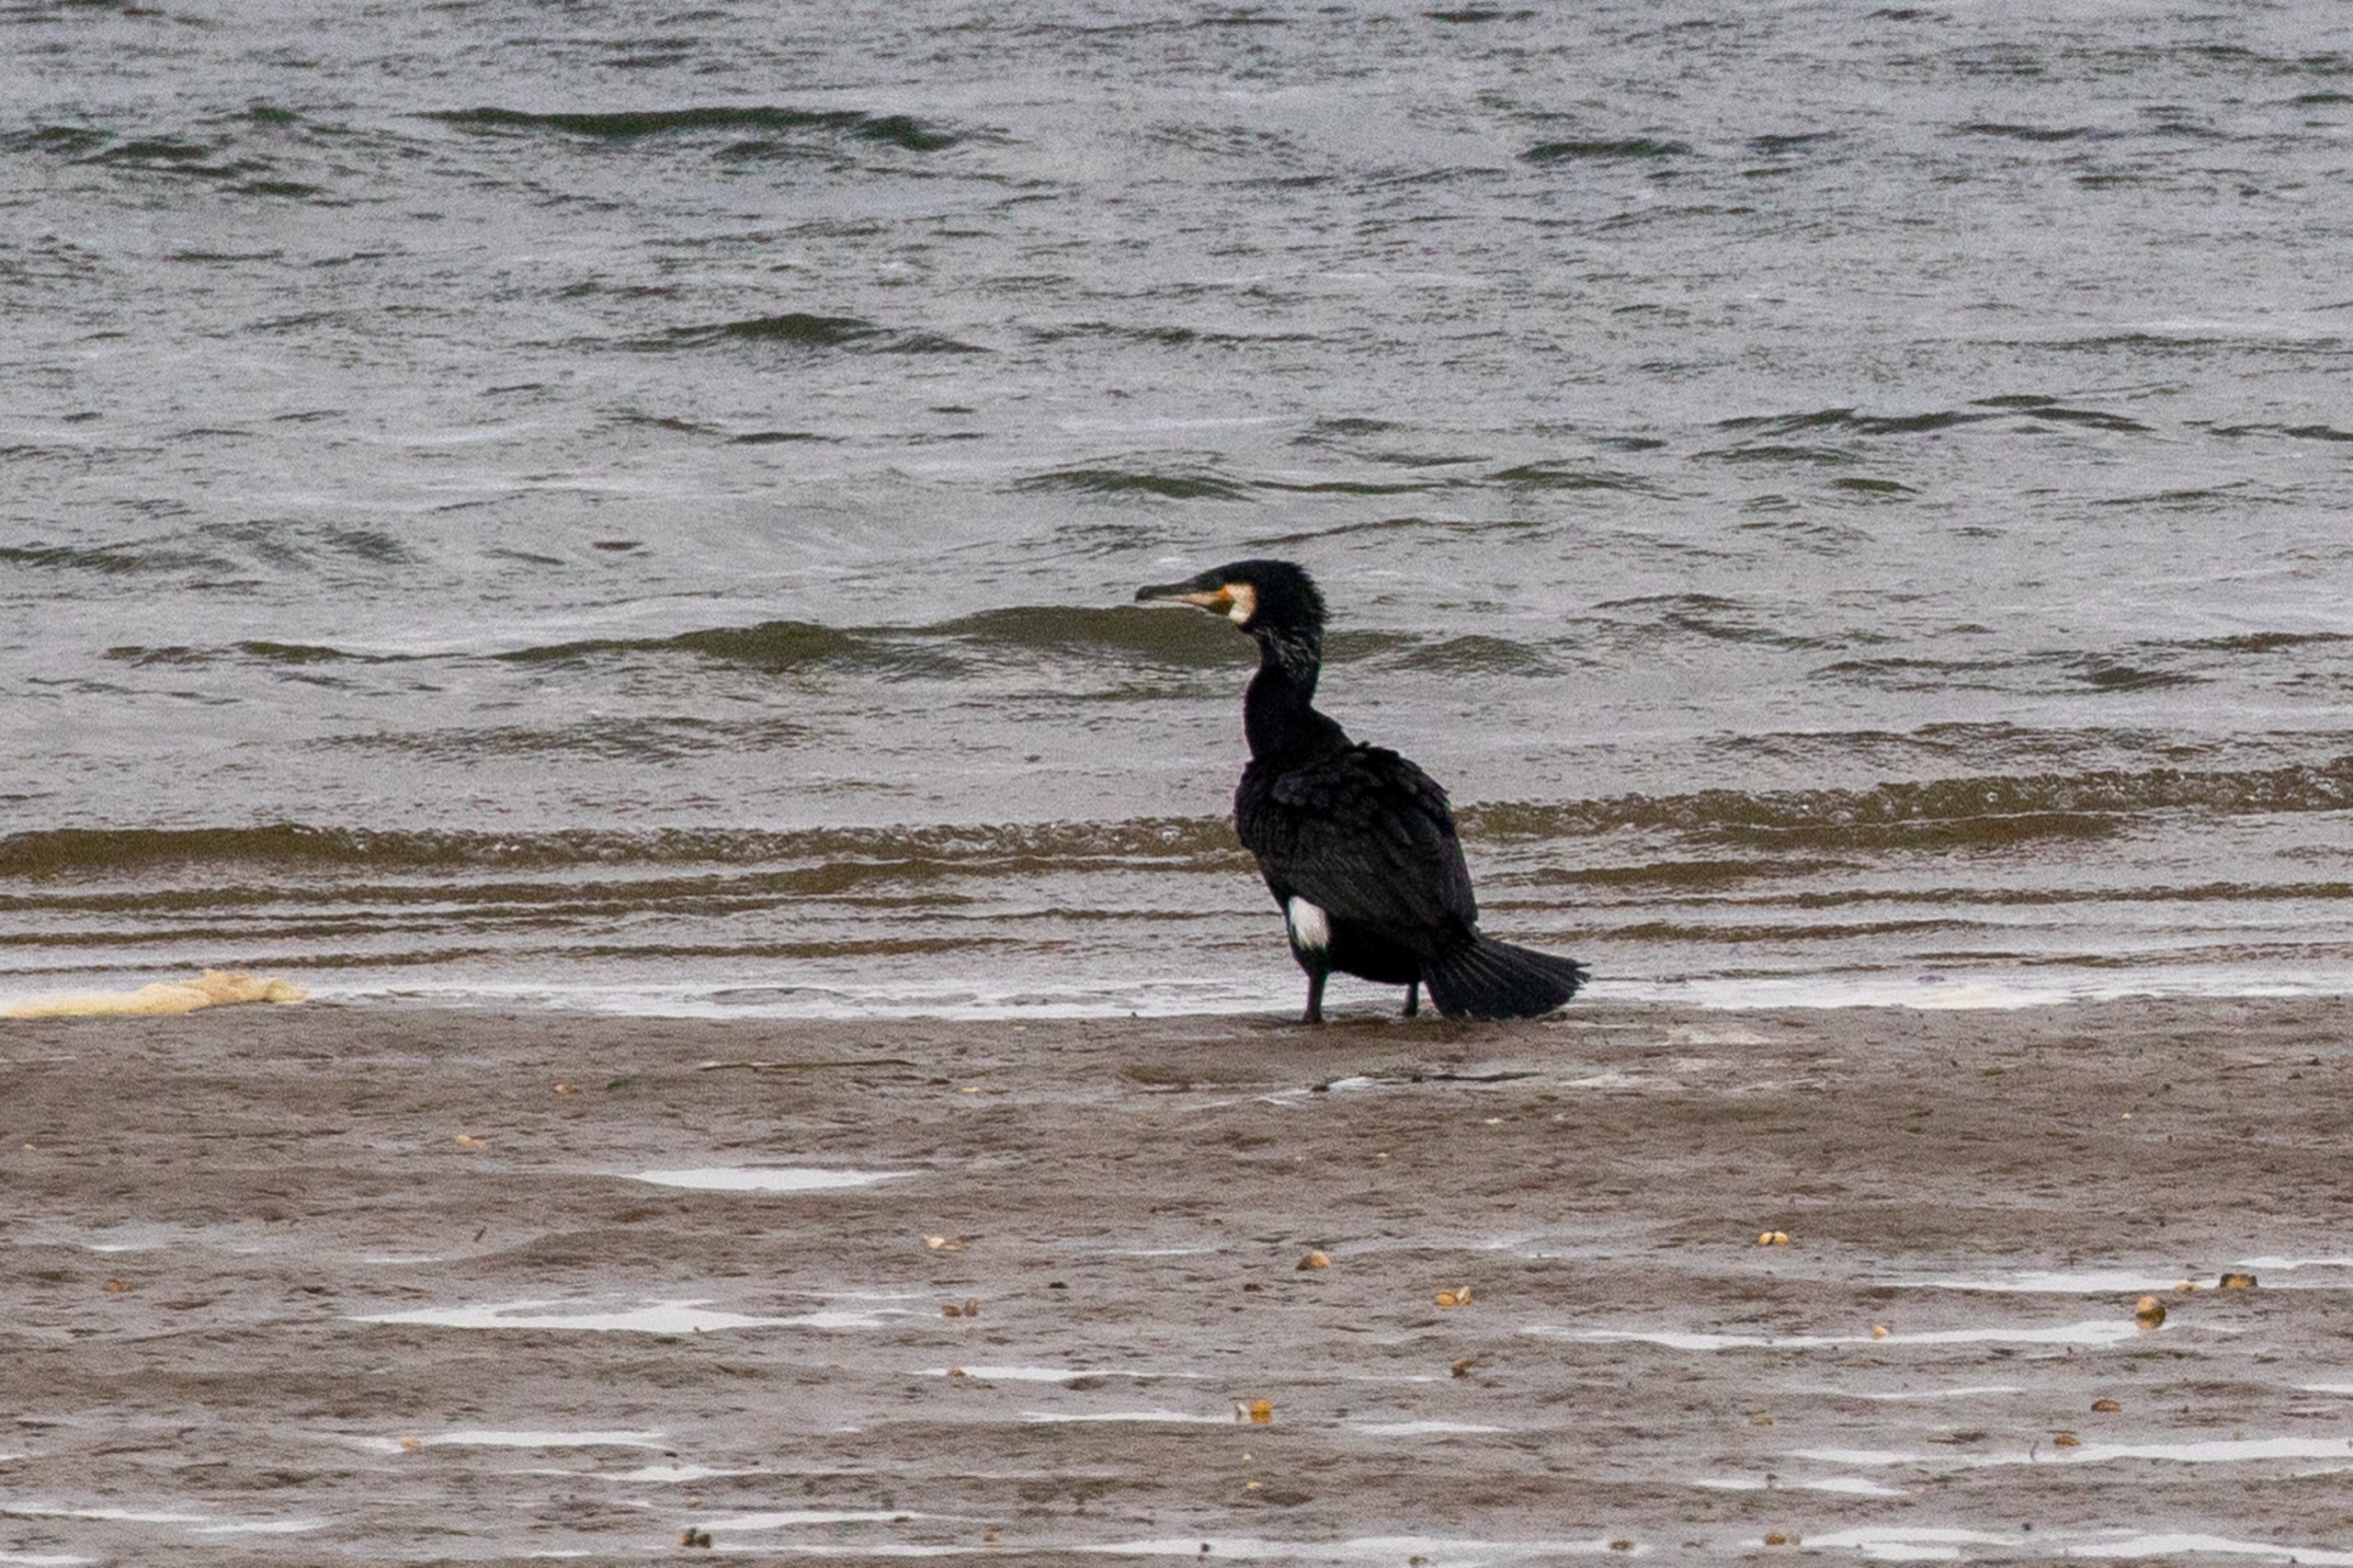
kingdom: Animalia
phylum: Chordata
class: Aves
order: Suliformes
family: Phalacrocoracidae
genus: Phalacrocorax
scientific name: Phalacrocorax carbo
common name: Skarv
